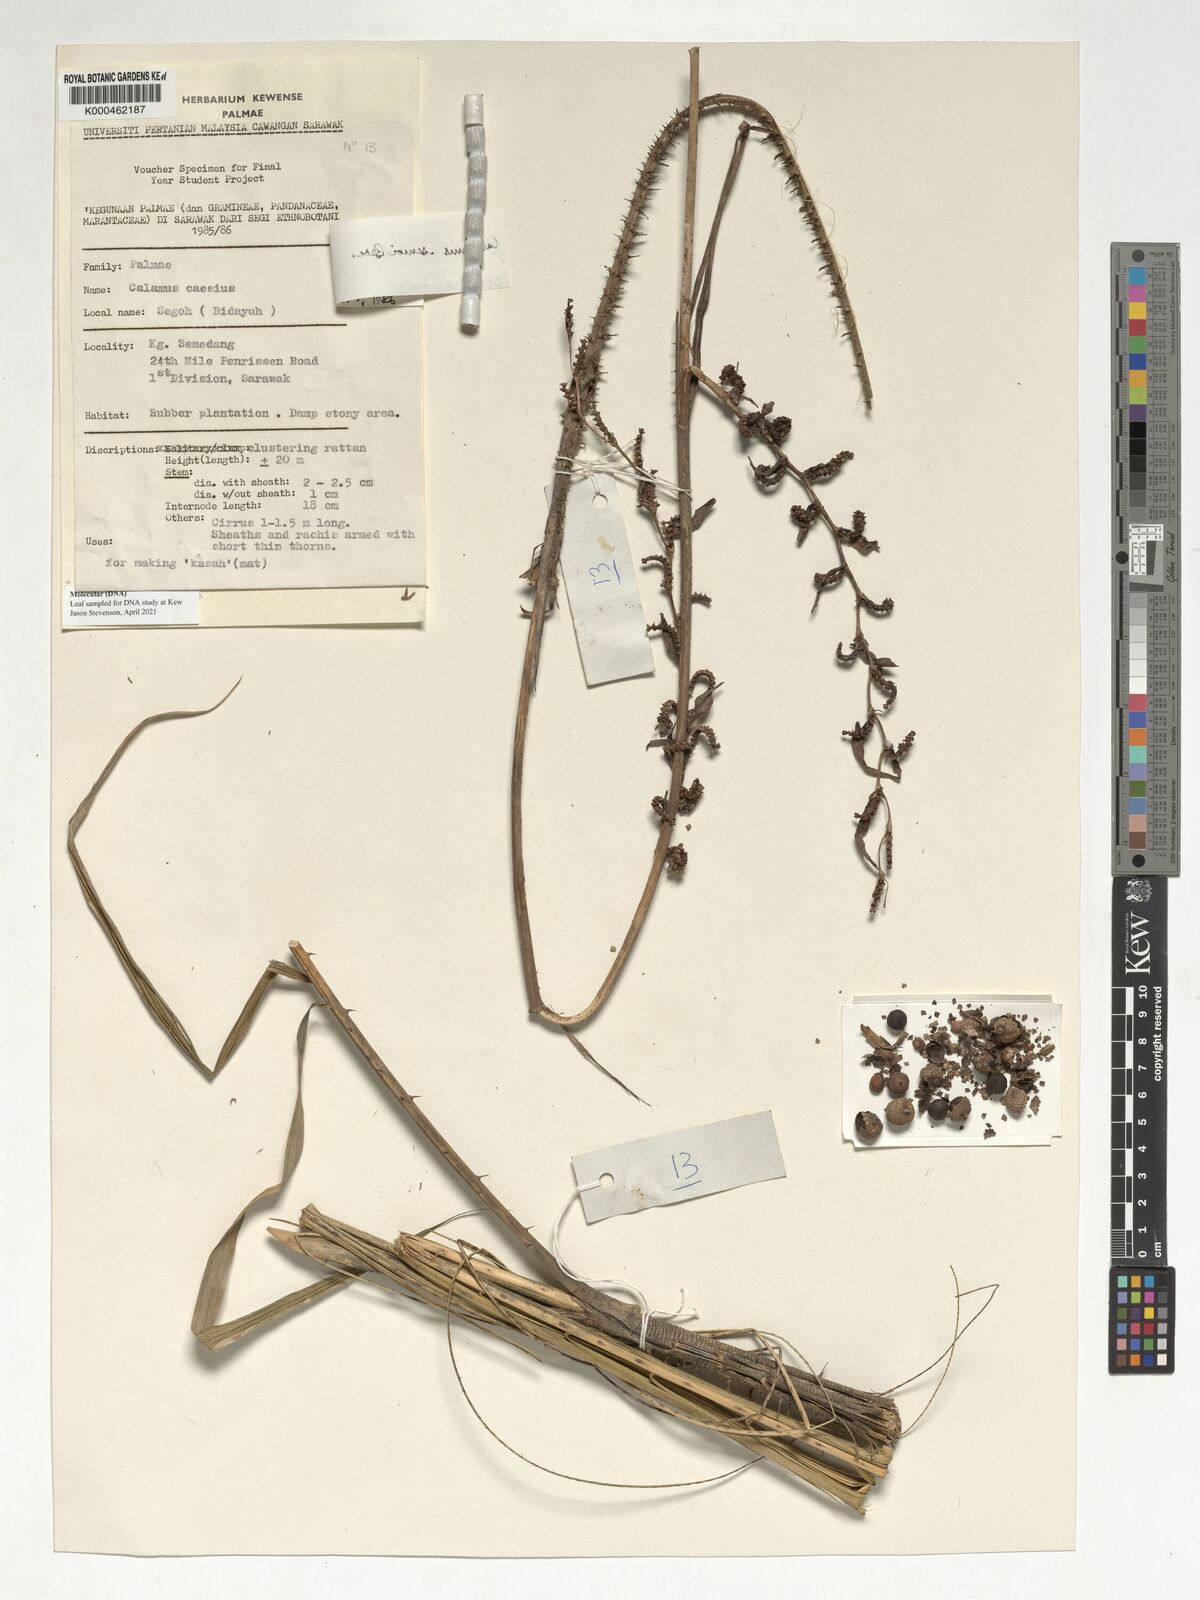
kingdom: Plantae
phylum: Tracheophyta
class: Liliopsida
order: Arecales
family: Arecaceae
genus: Calamus
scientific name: Calamus erioacanthus
